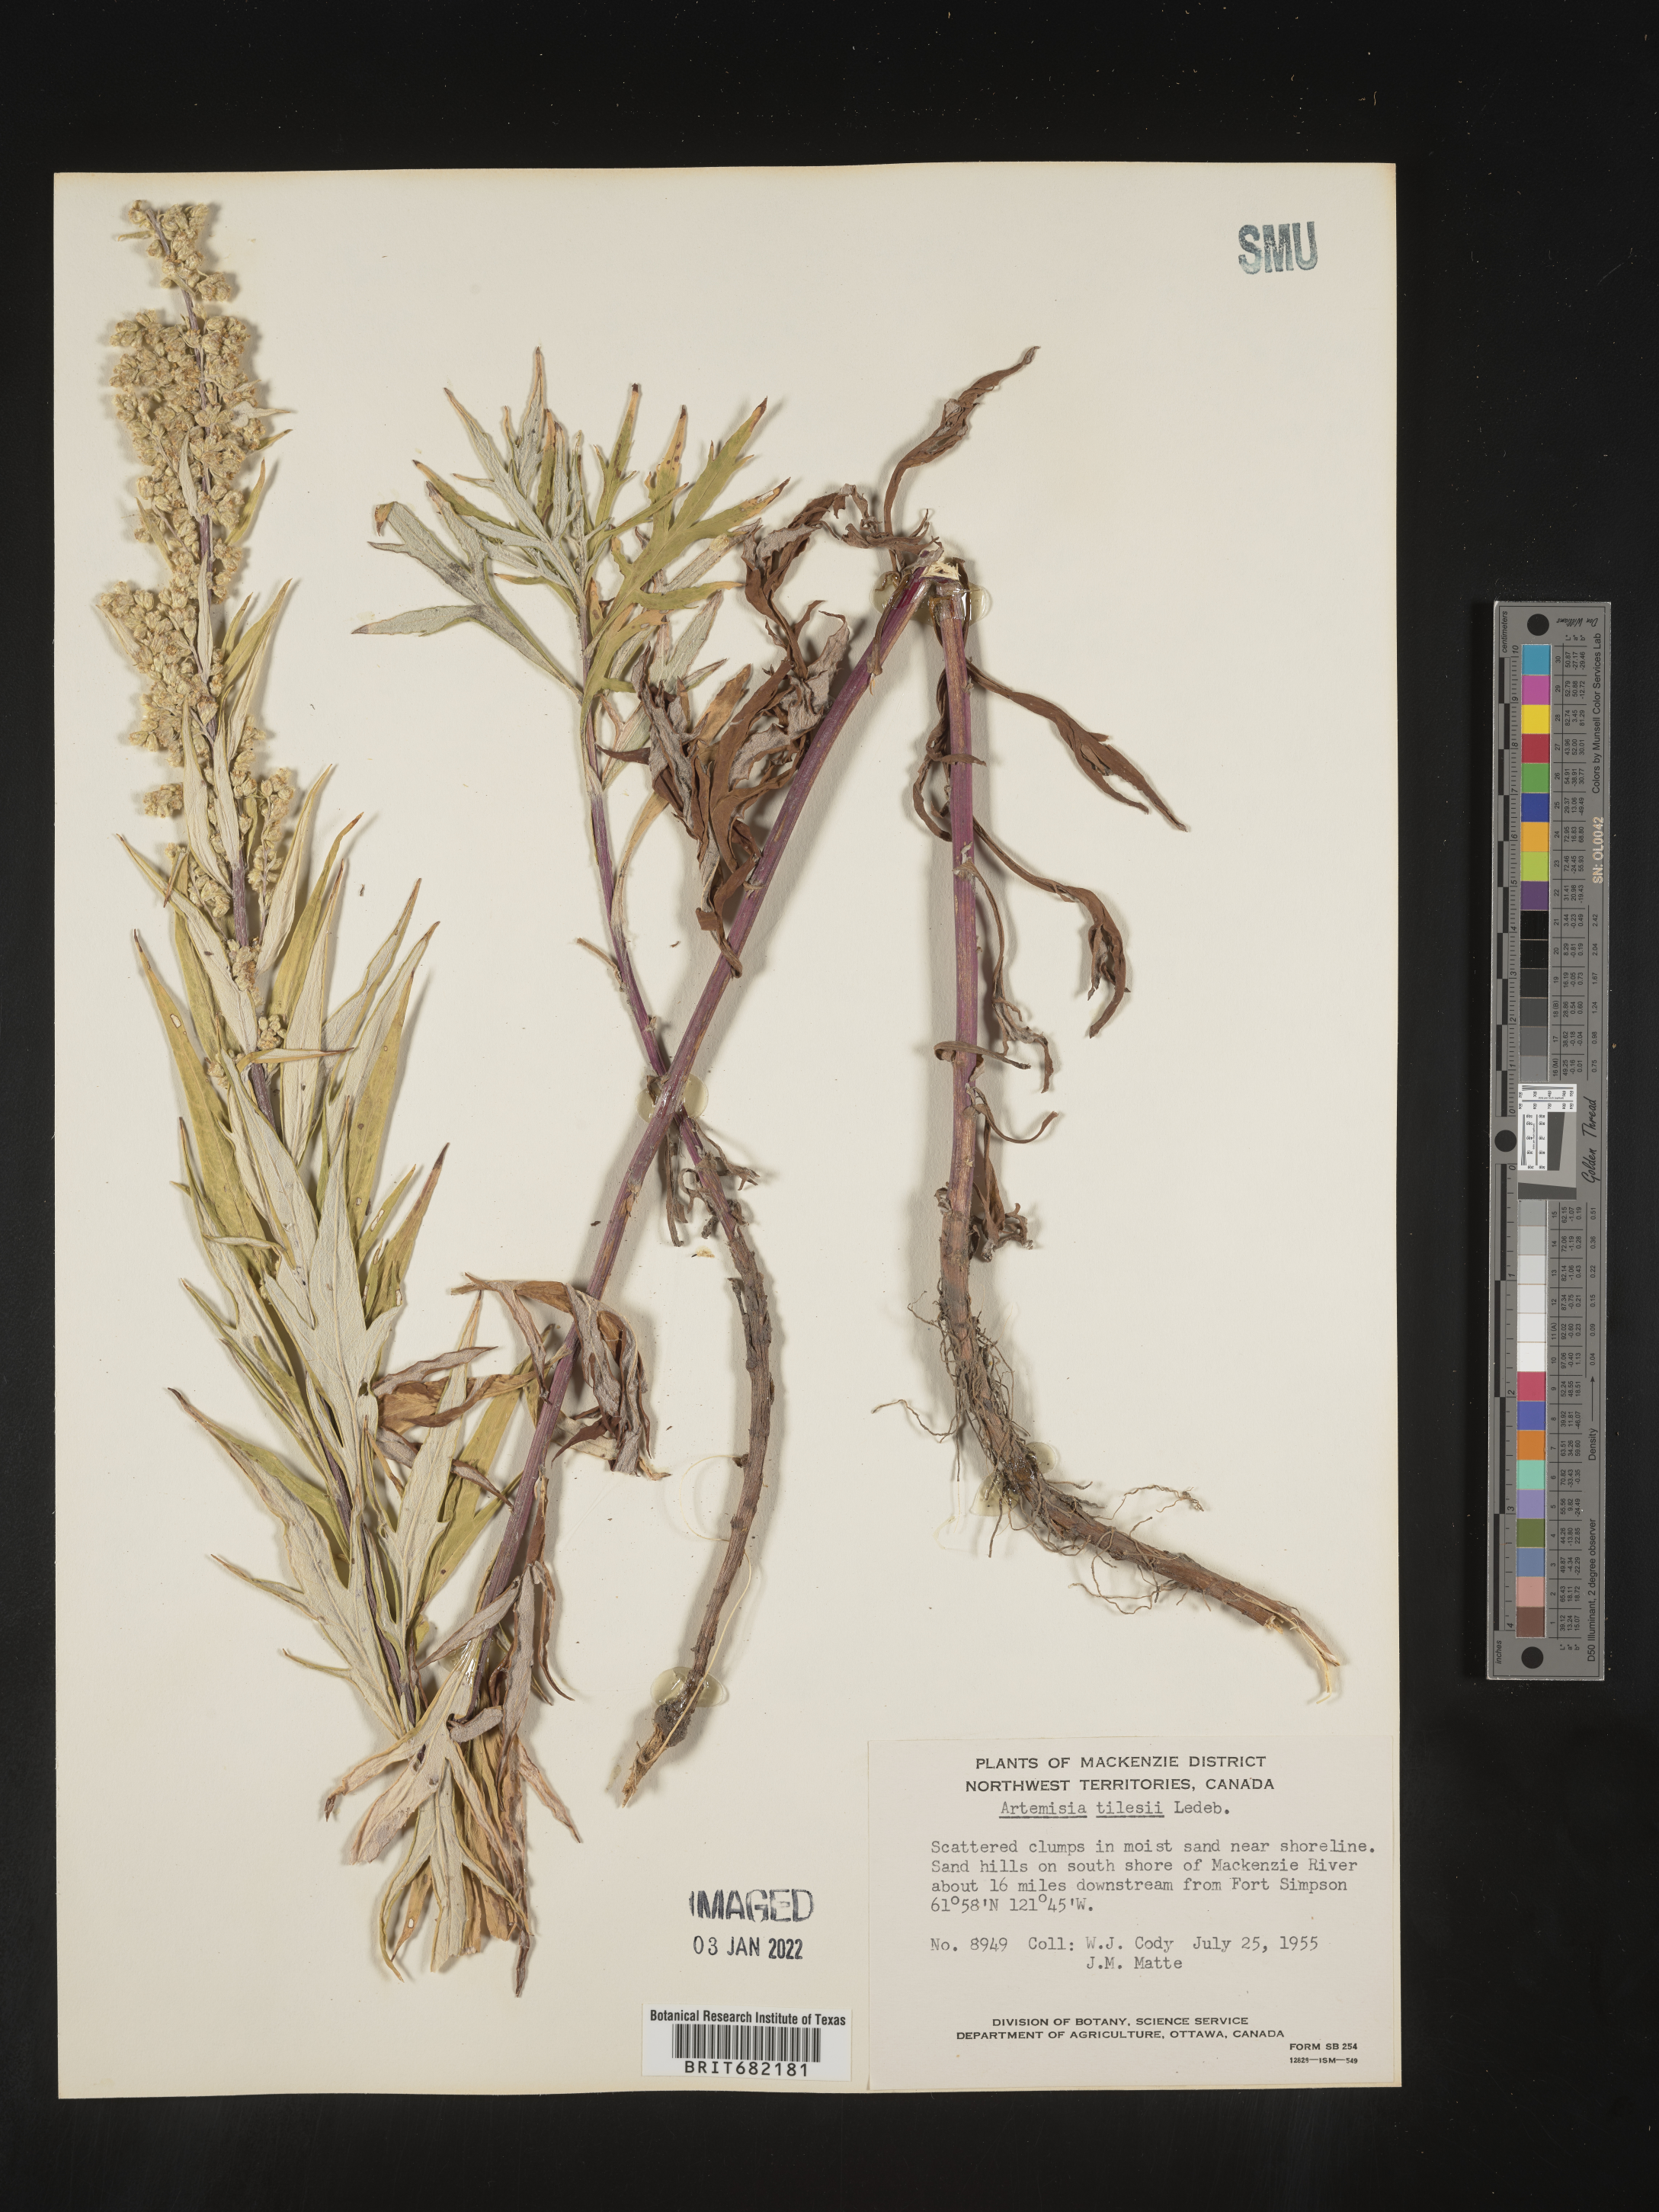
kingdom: Plantae
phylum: Tracheophyta
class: Magnoliopsida
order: Asterales
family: Asteraceae
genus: Artemisia
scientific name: Artemisia tilesii
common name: Aleutian mugwort
